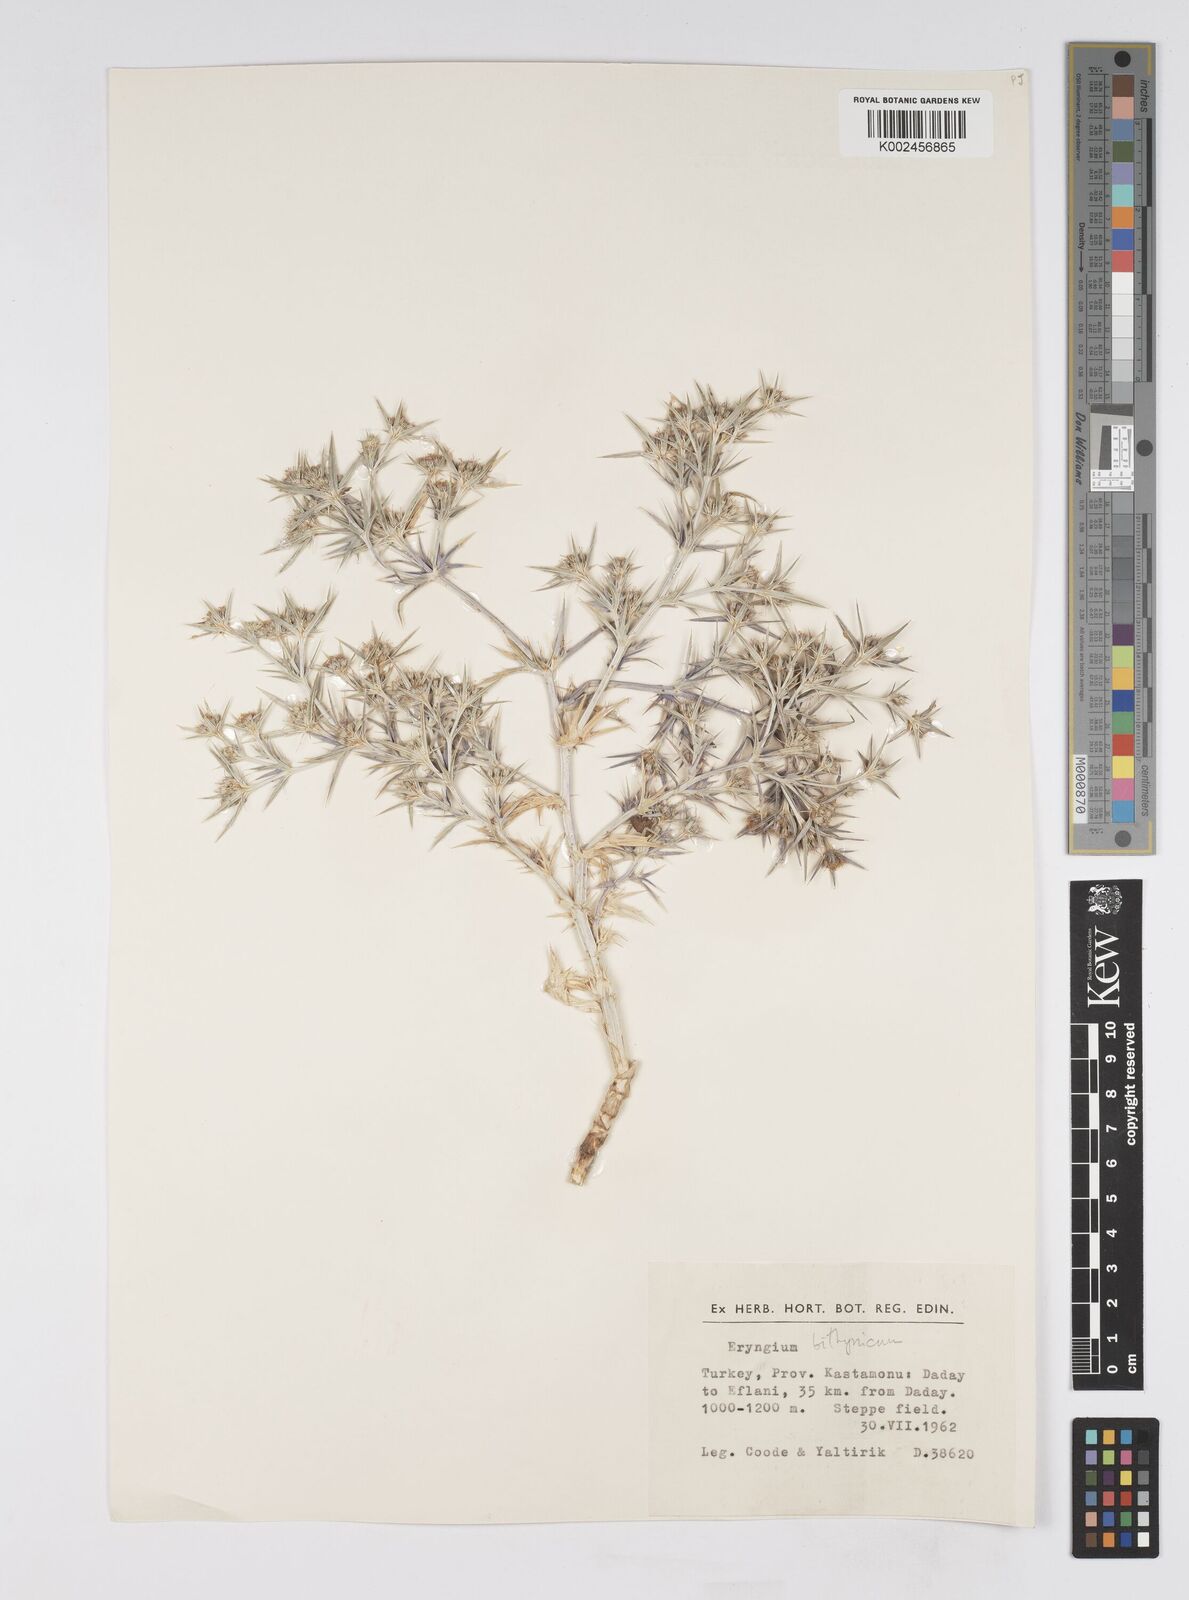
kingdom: Plantae
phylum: Tracheophyta
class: Magnoliopsida
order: Apiales
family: Apiaceae
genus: Eryngium
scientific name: Eryngium bithynicum
